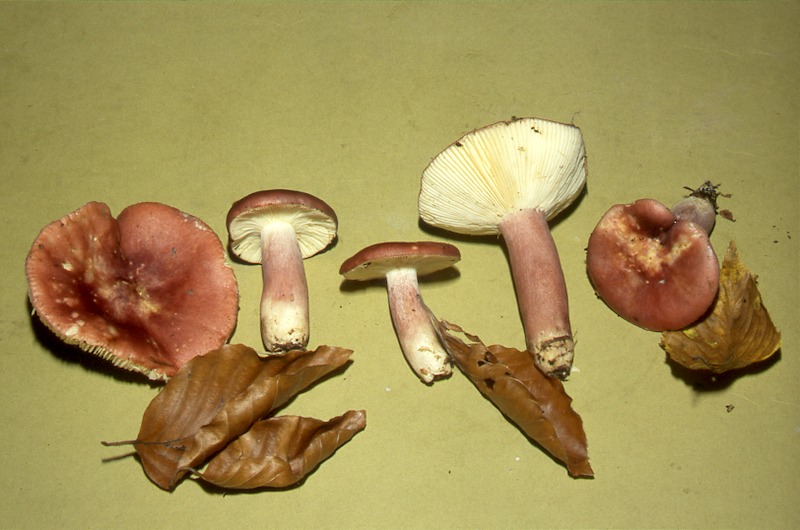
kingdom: Fungi
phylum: Basidiomycota
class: Agaricomycetes
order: Russulales
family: Russulaceae
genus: Russula
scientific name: Russula sardonia
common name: Primrose brittlegill
